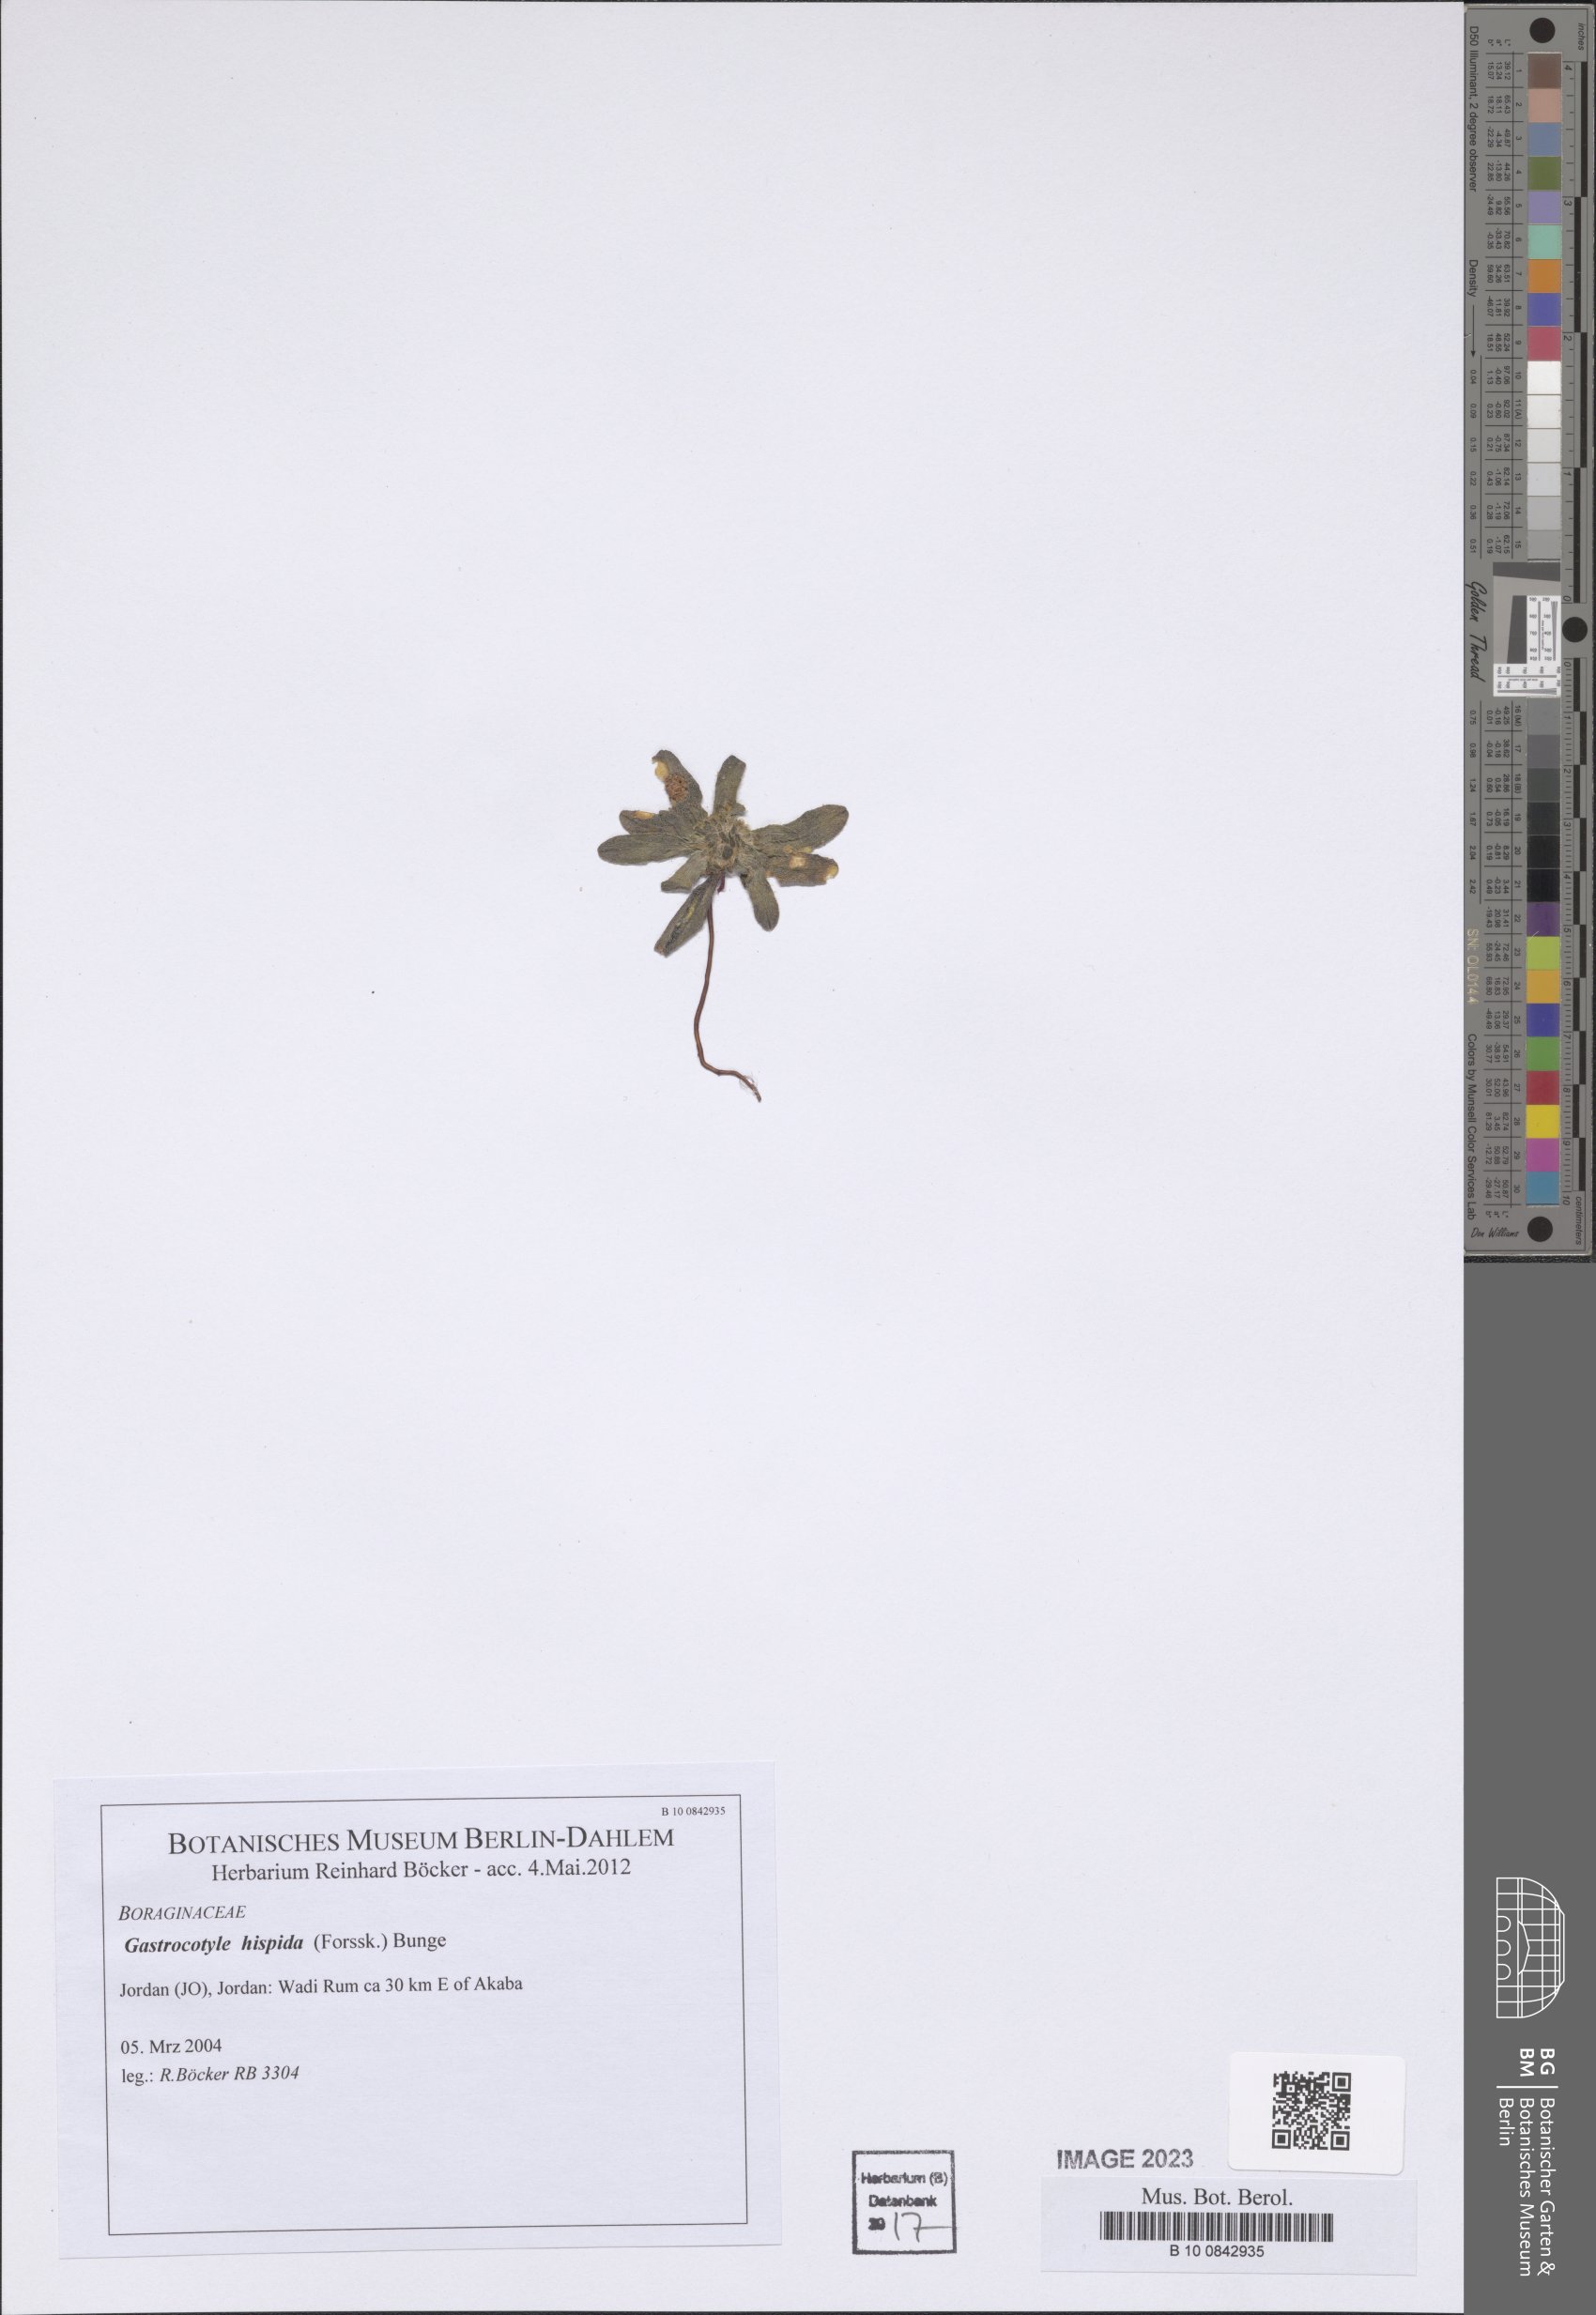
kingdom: Plantae
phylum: Tracheophyta
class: Magnoliopsida
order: Boraginales
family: Boraginaceae
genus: Gastrocotyle
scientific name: Gastrocotyle hispida
